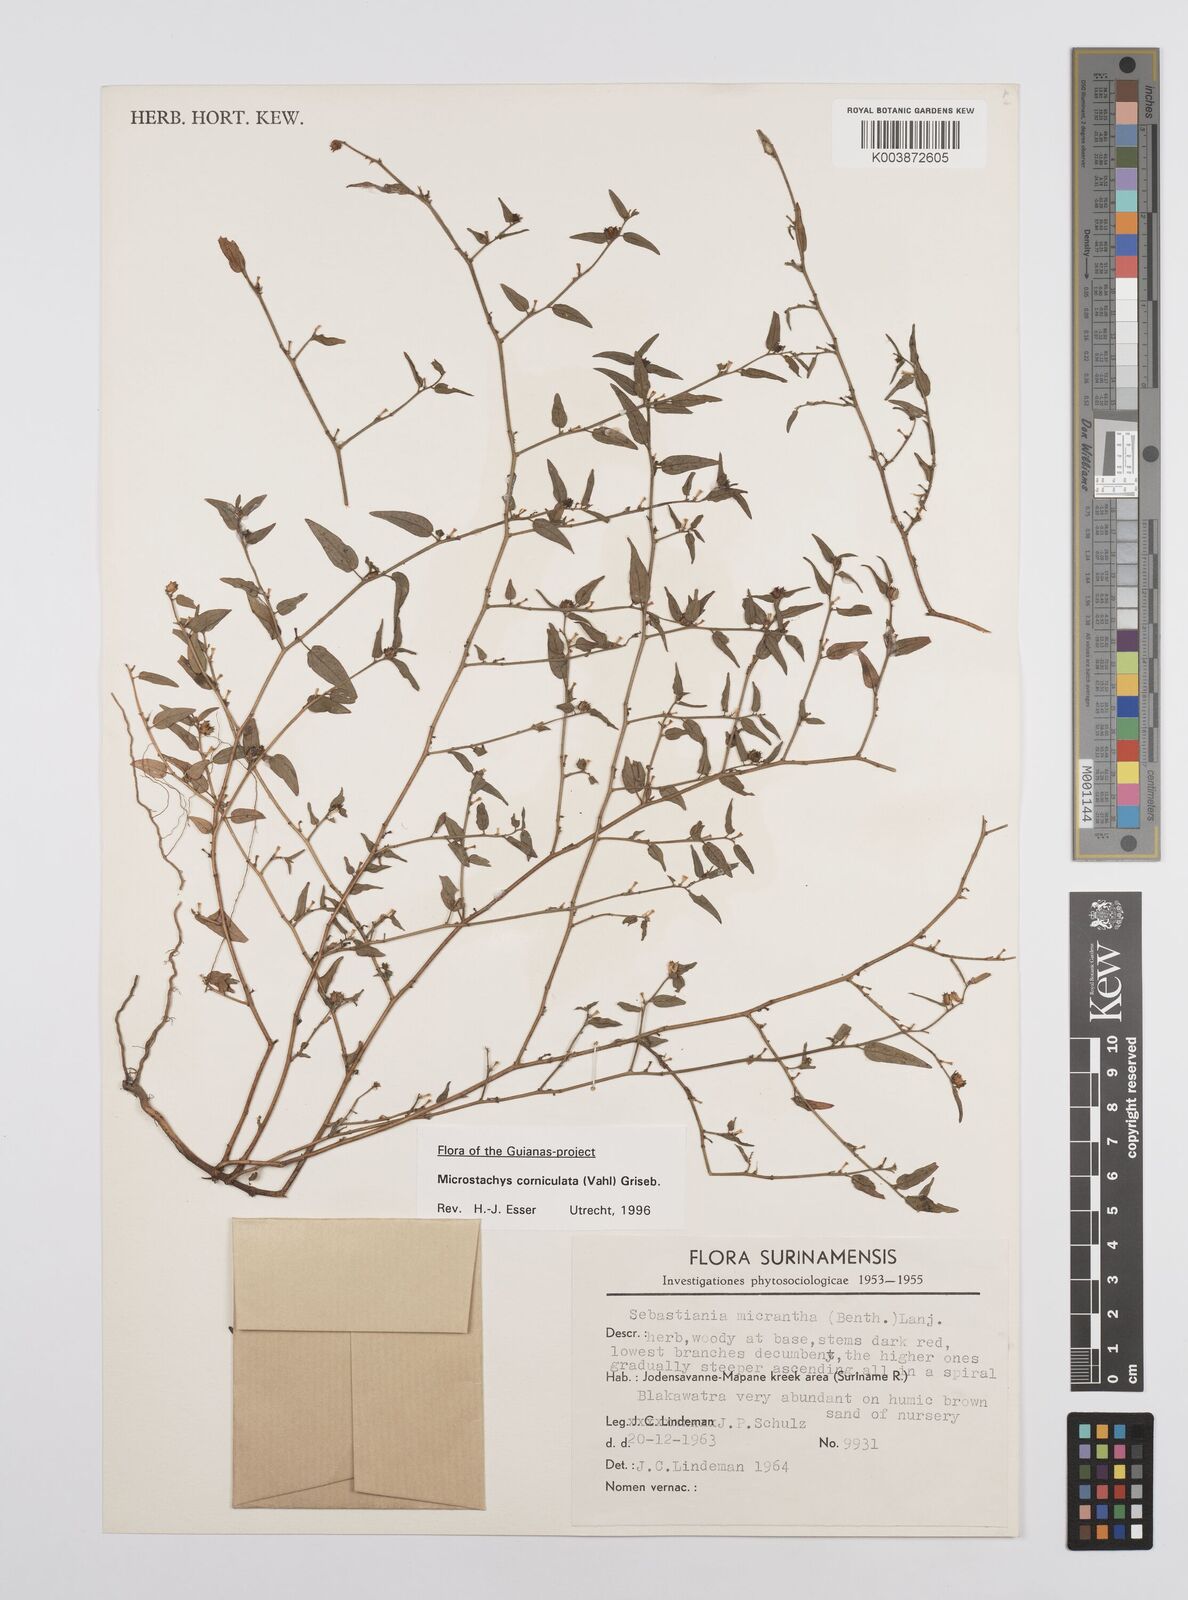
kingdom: Plantae
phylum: Tracheophyta
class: Magnoliopsida
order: Malpighiales
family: Euphorbiaceae
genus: Microstachys
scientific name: Microstachys corniculata
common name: Hato tejas
